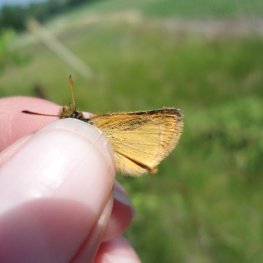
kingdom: Animalia
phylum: Arthropoda
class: Insecta
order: Lepidoptera
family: Hesperiidae
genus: Ancyloxypha
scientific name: Ancyloxypha numitor
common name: Least Skipper
